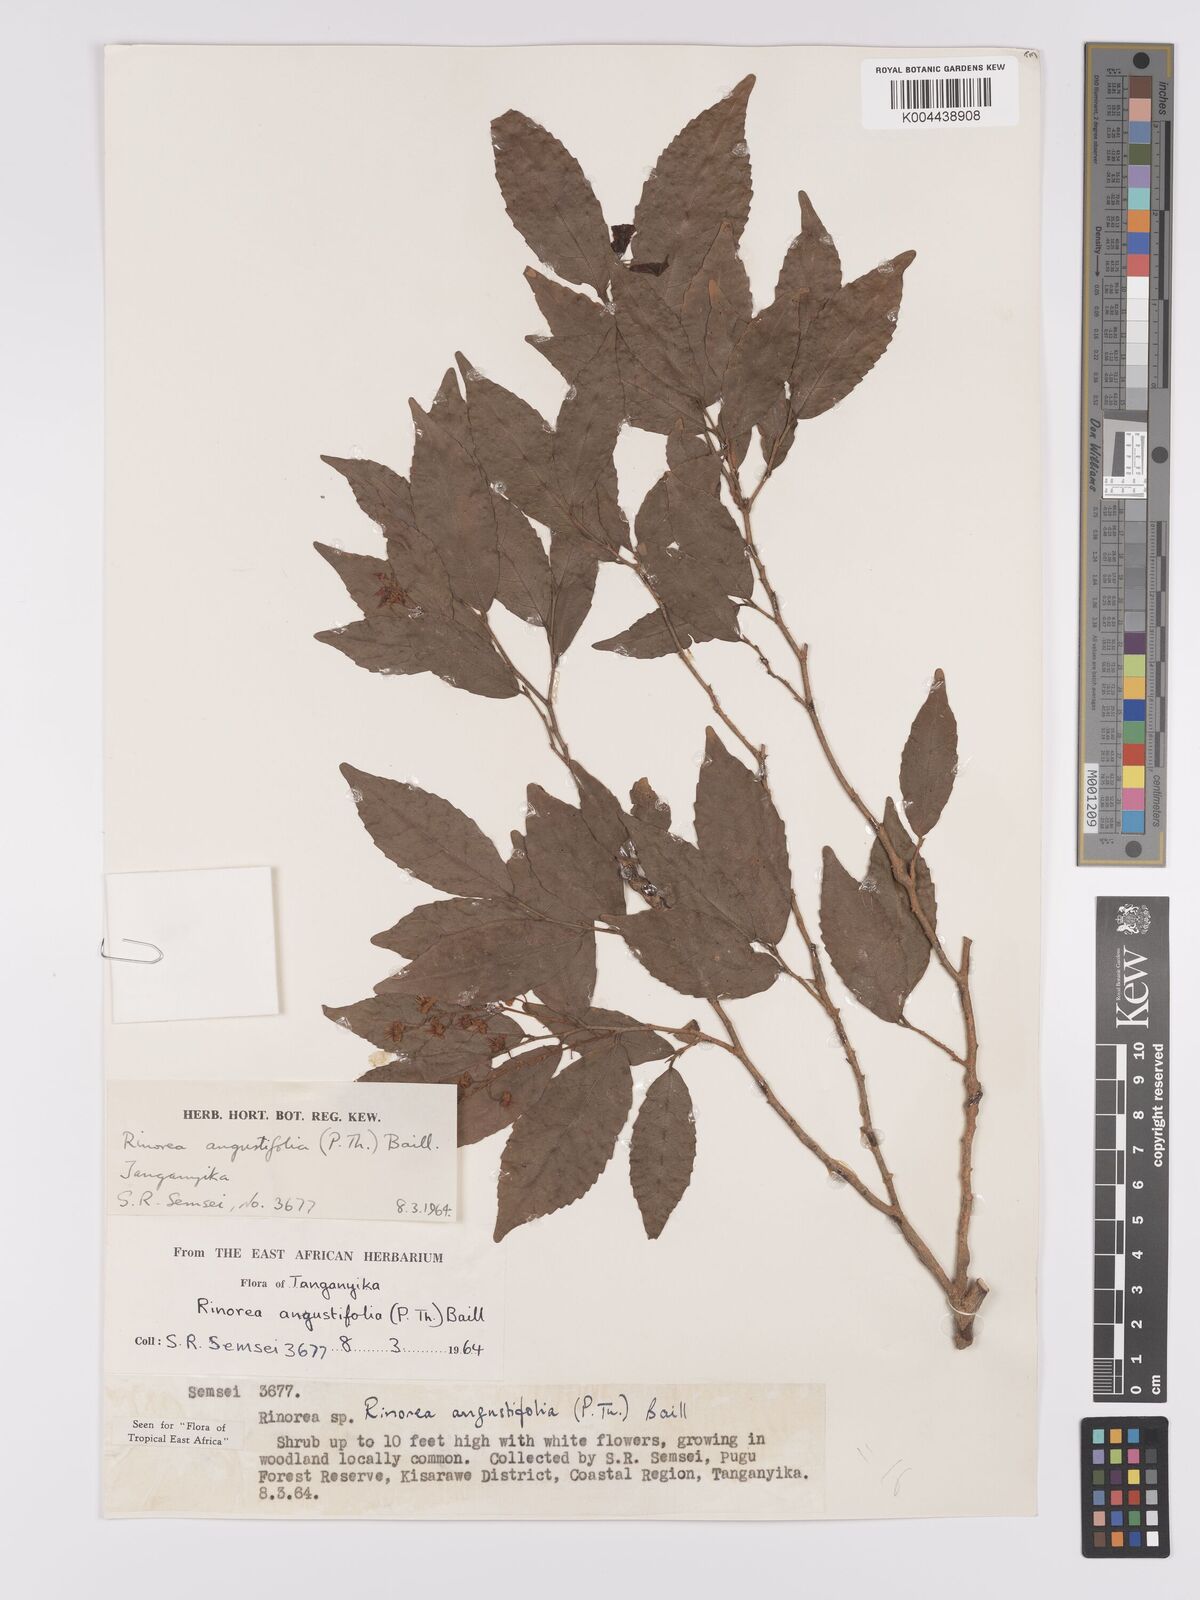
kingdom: Plantae
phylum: Tracheophyta
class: Magnoliopsida
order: Malpighiales
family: Violaceae
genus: Rinorea
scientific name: Rinorea angustifolia
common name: White violet-bush
